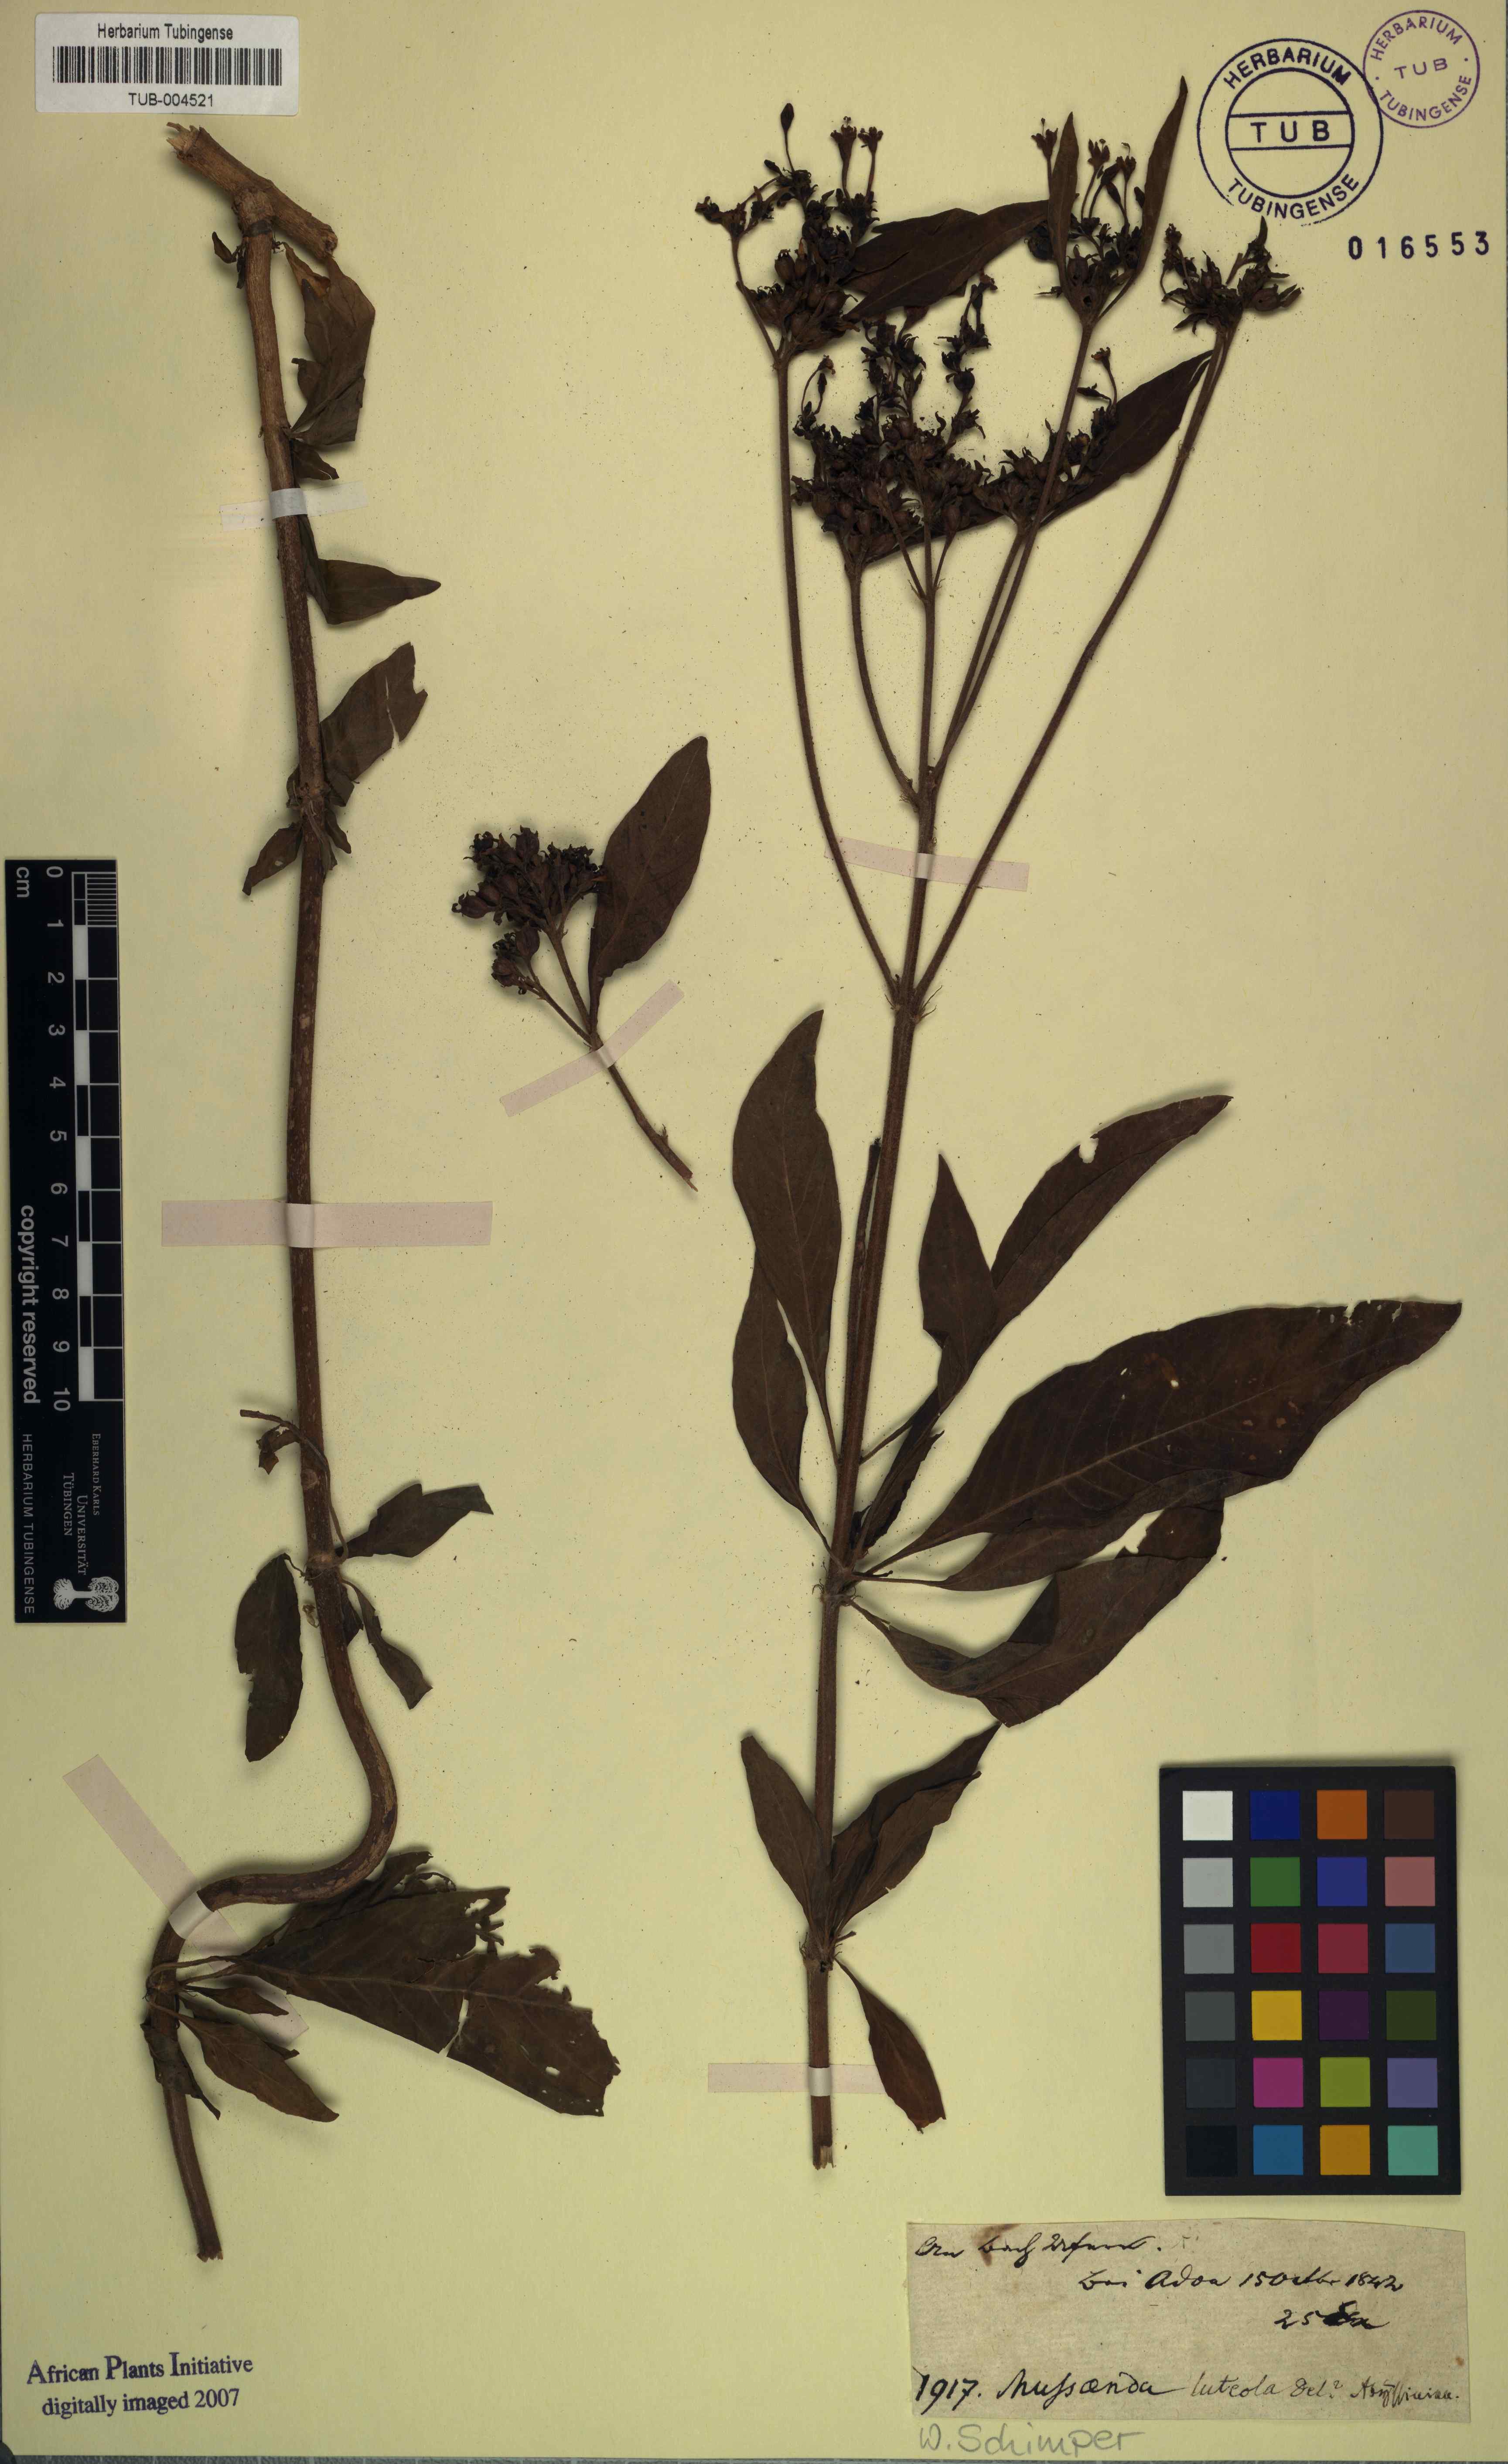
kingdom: Plantae
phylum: Tracheophyta
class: Magnoliopsida
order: Gentianales
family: Rubiaceae
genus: Pentas
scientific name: Pentas lanceolata
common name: Egyptian starcluster
